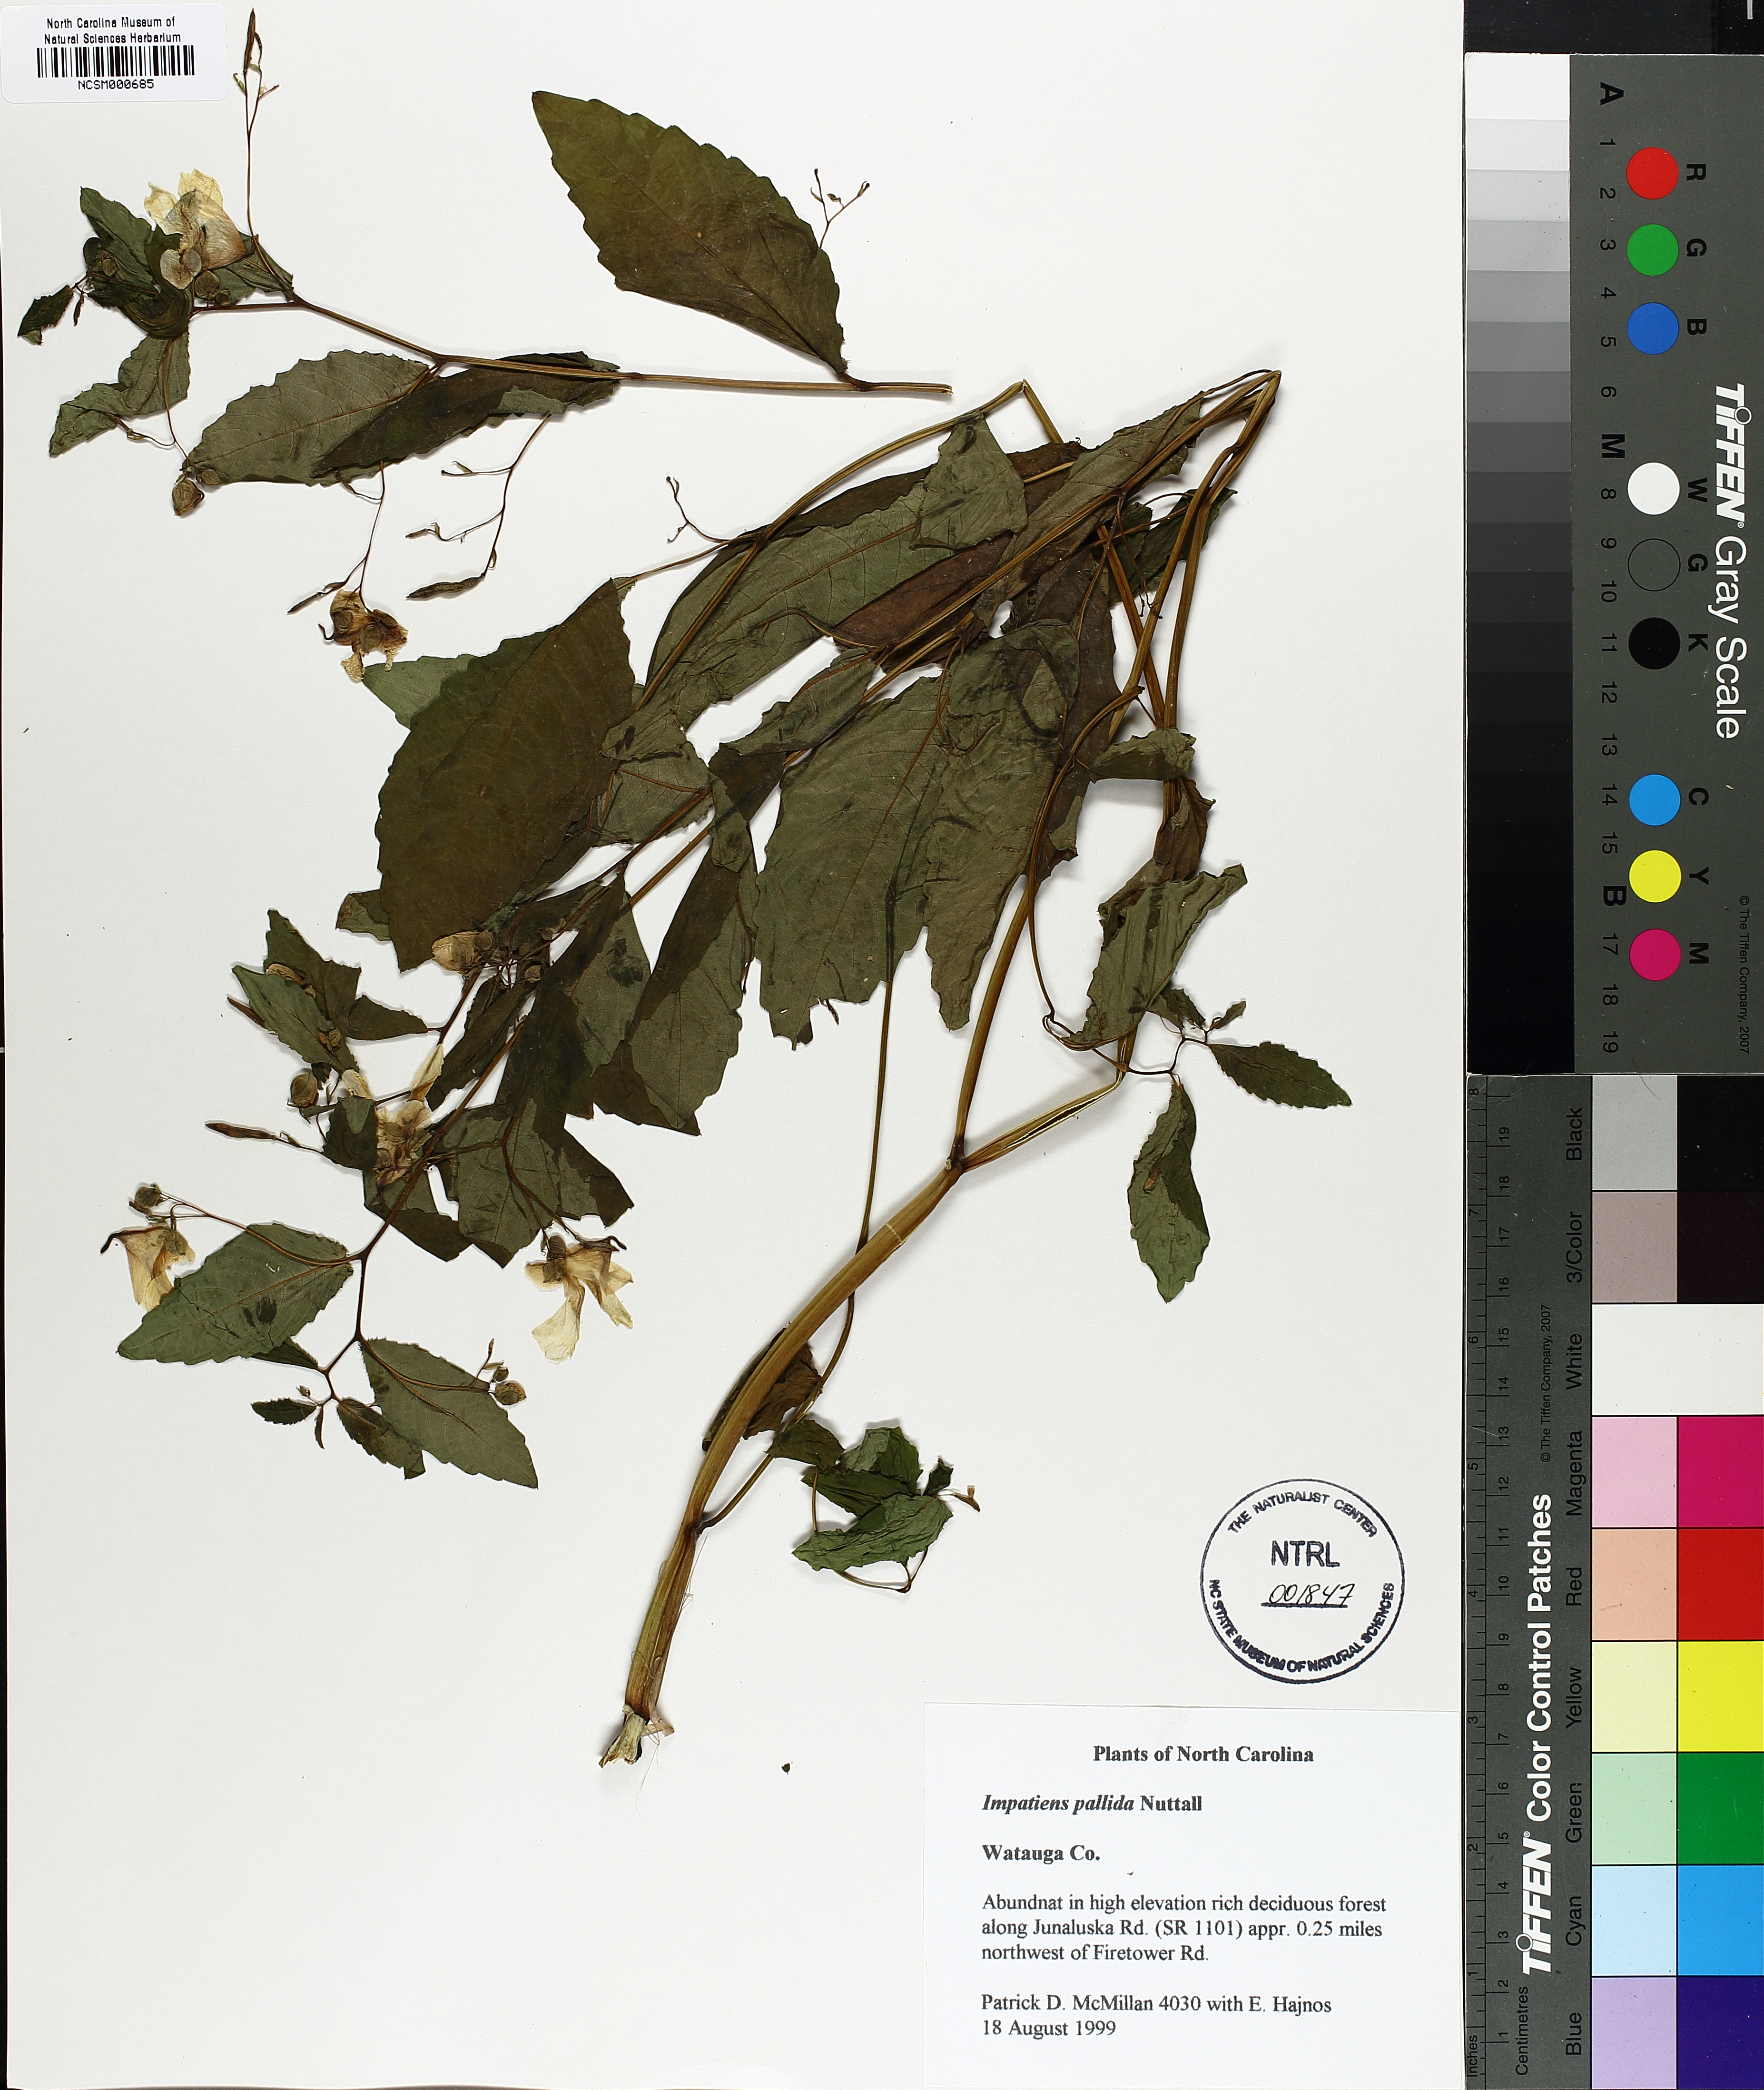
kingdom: Plantae
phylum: Tracheophyta
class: Magnoliopsida
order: Ericales
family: Balsaminaceae
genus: Impatiens
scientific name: Impatiens pallida
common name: Pale snapweed
